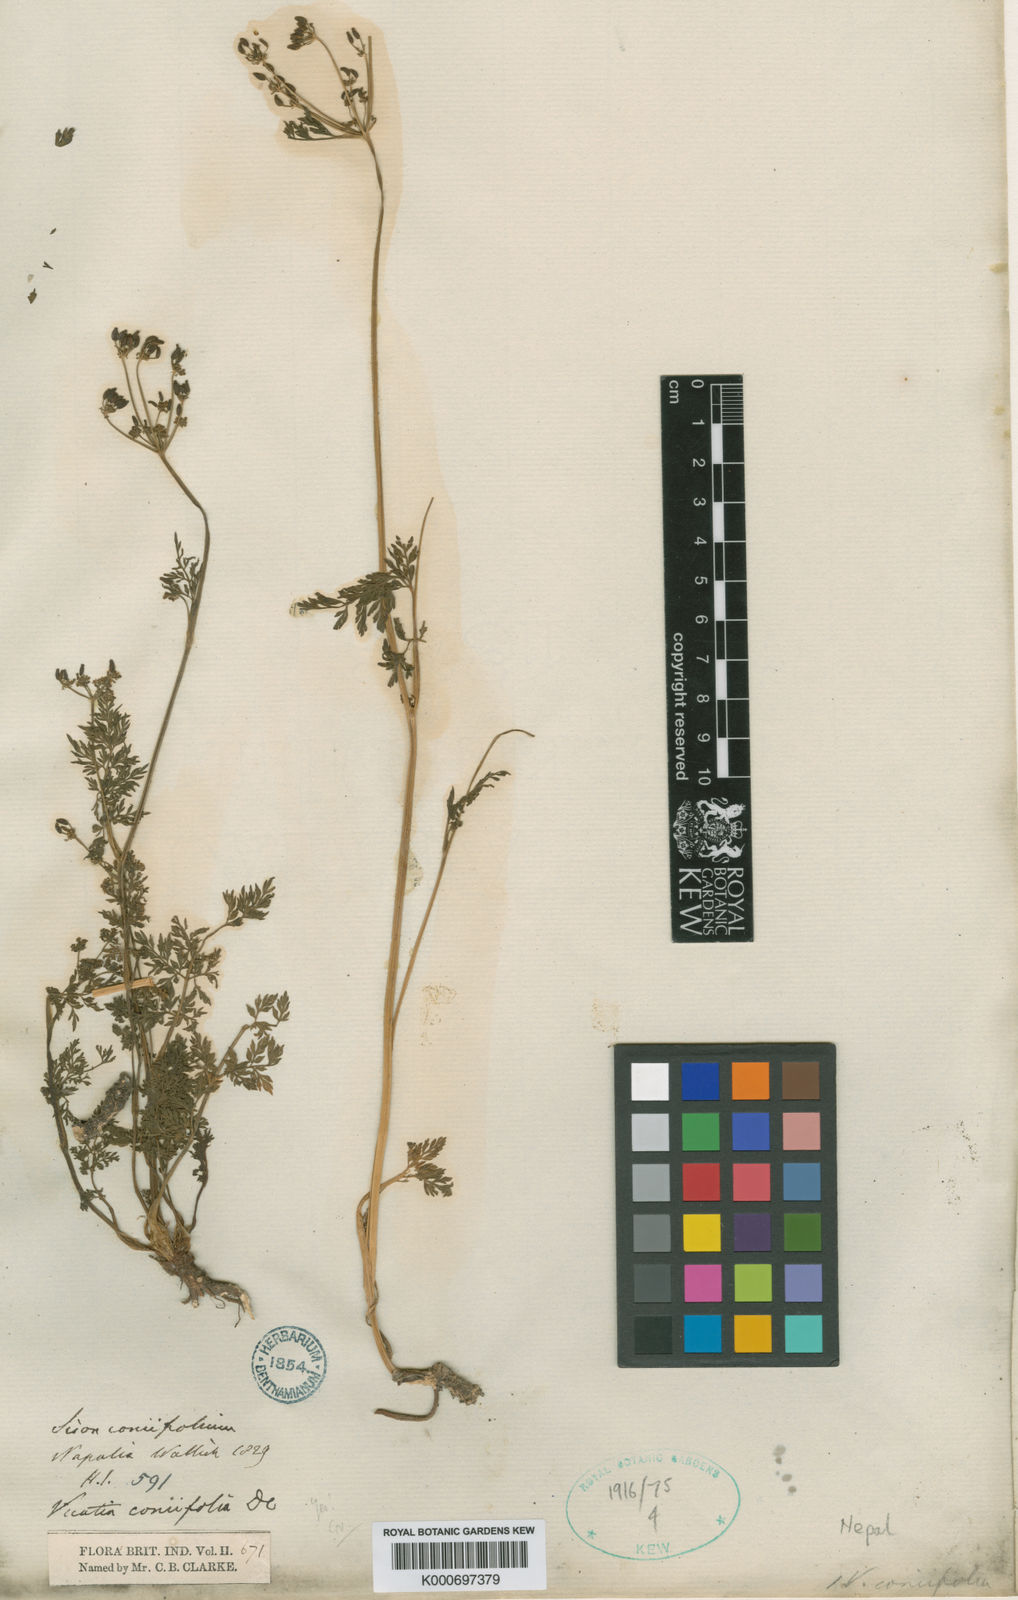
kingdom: Plantae
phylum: Tracheophyta
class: Magnoliopsida
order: Apiales
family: Apiaceae
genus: Vicatia
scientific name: Vicatia coniifolia
